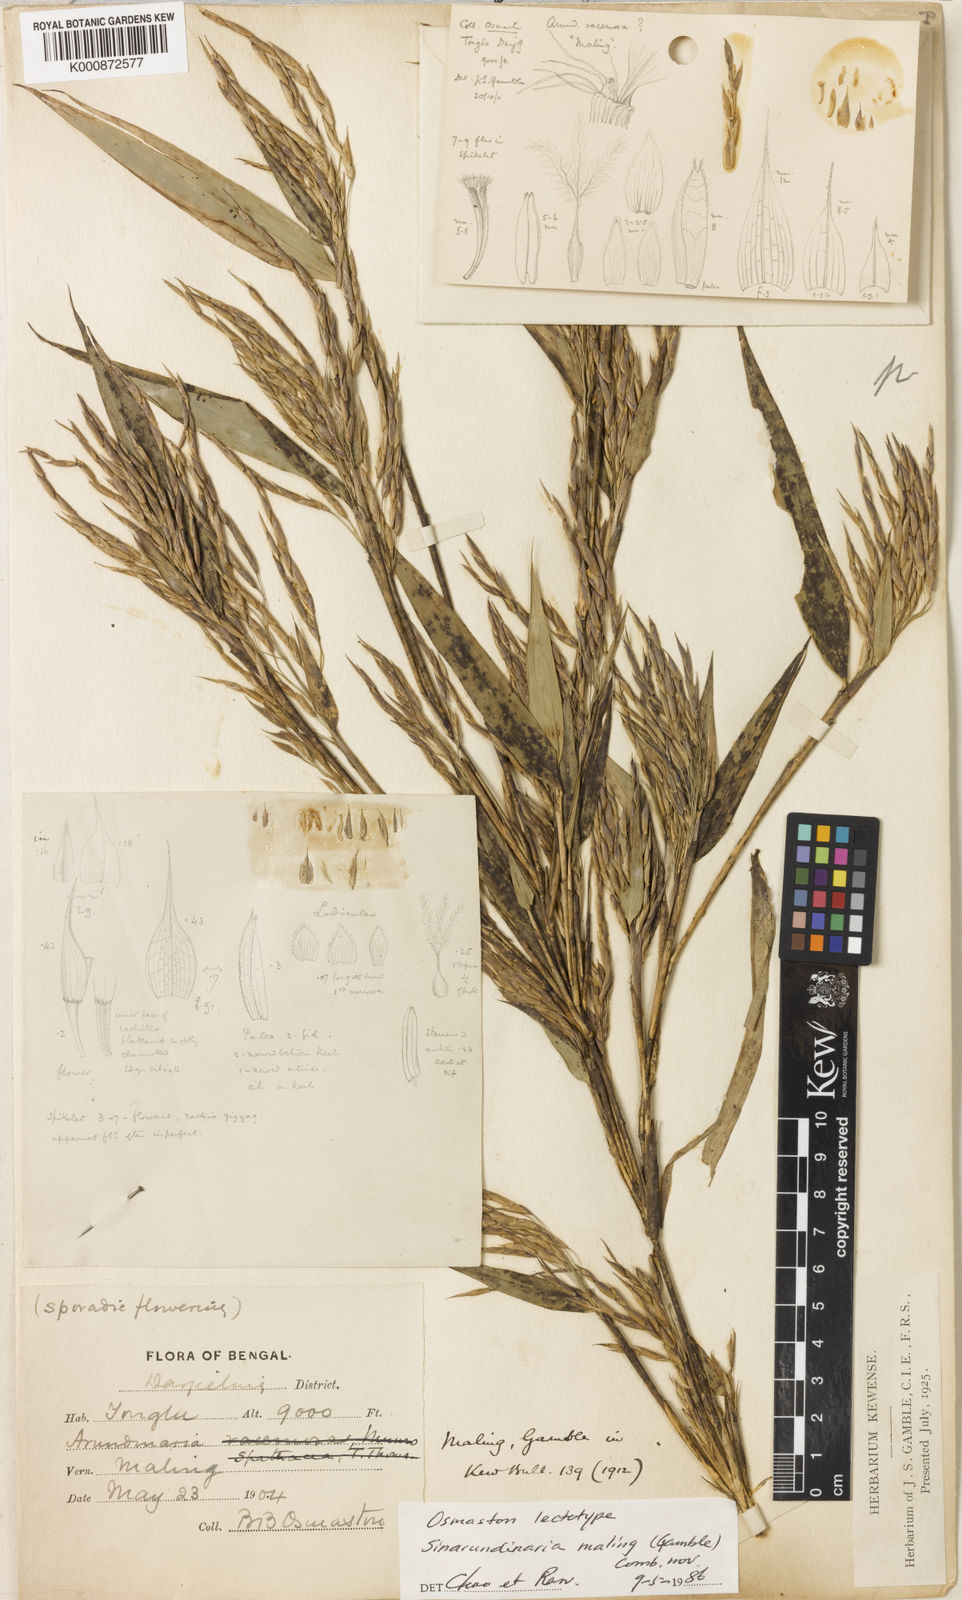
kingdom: Plantae
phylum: Tracheophyta
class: Liliopsida
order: Poales
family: Poaceae
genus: Yushania
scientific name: Yushania maling
